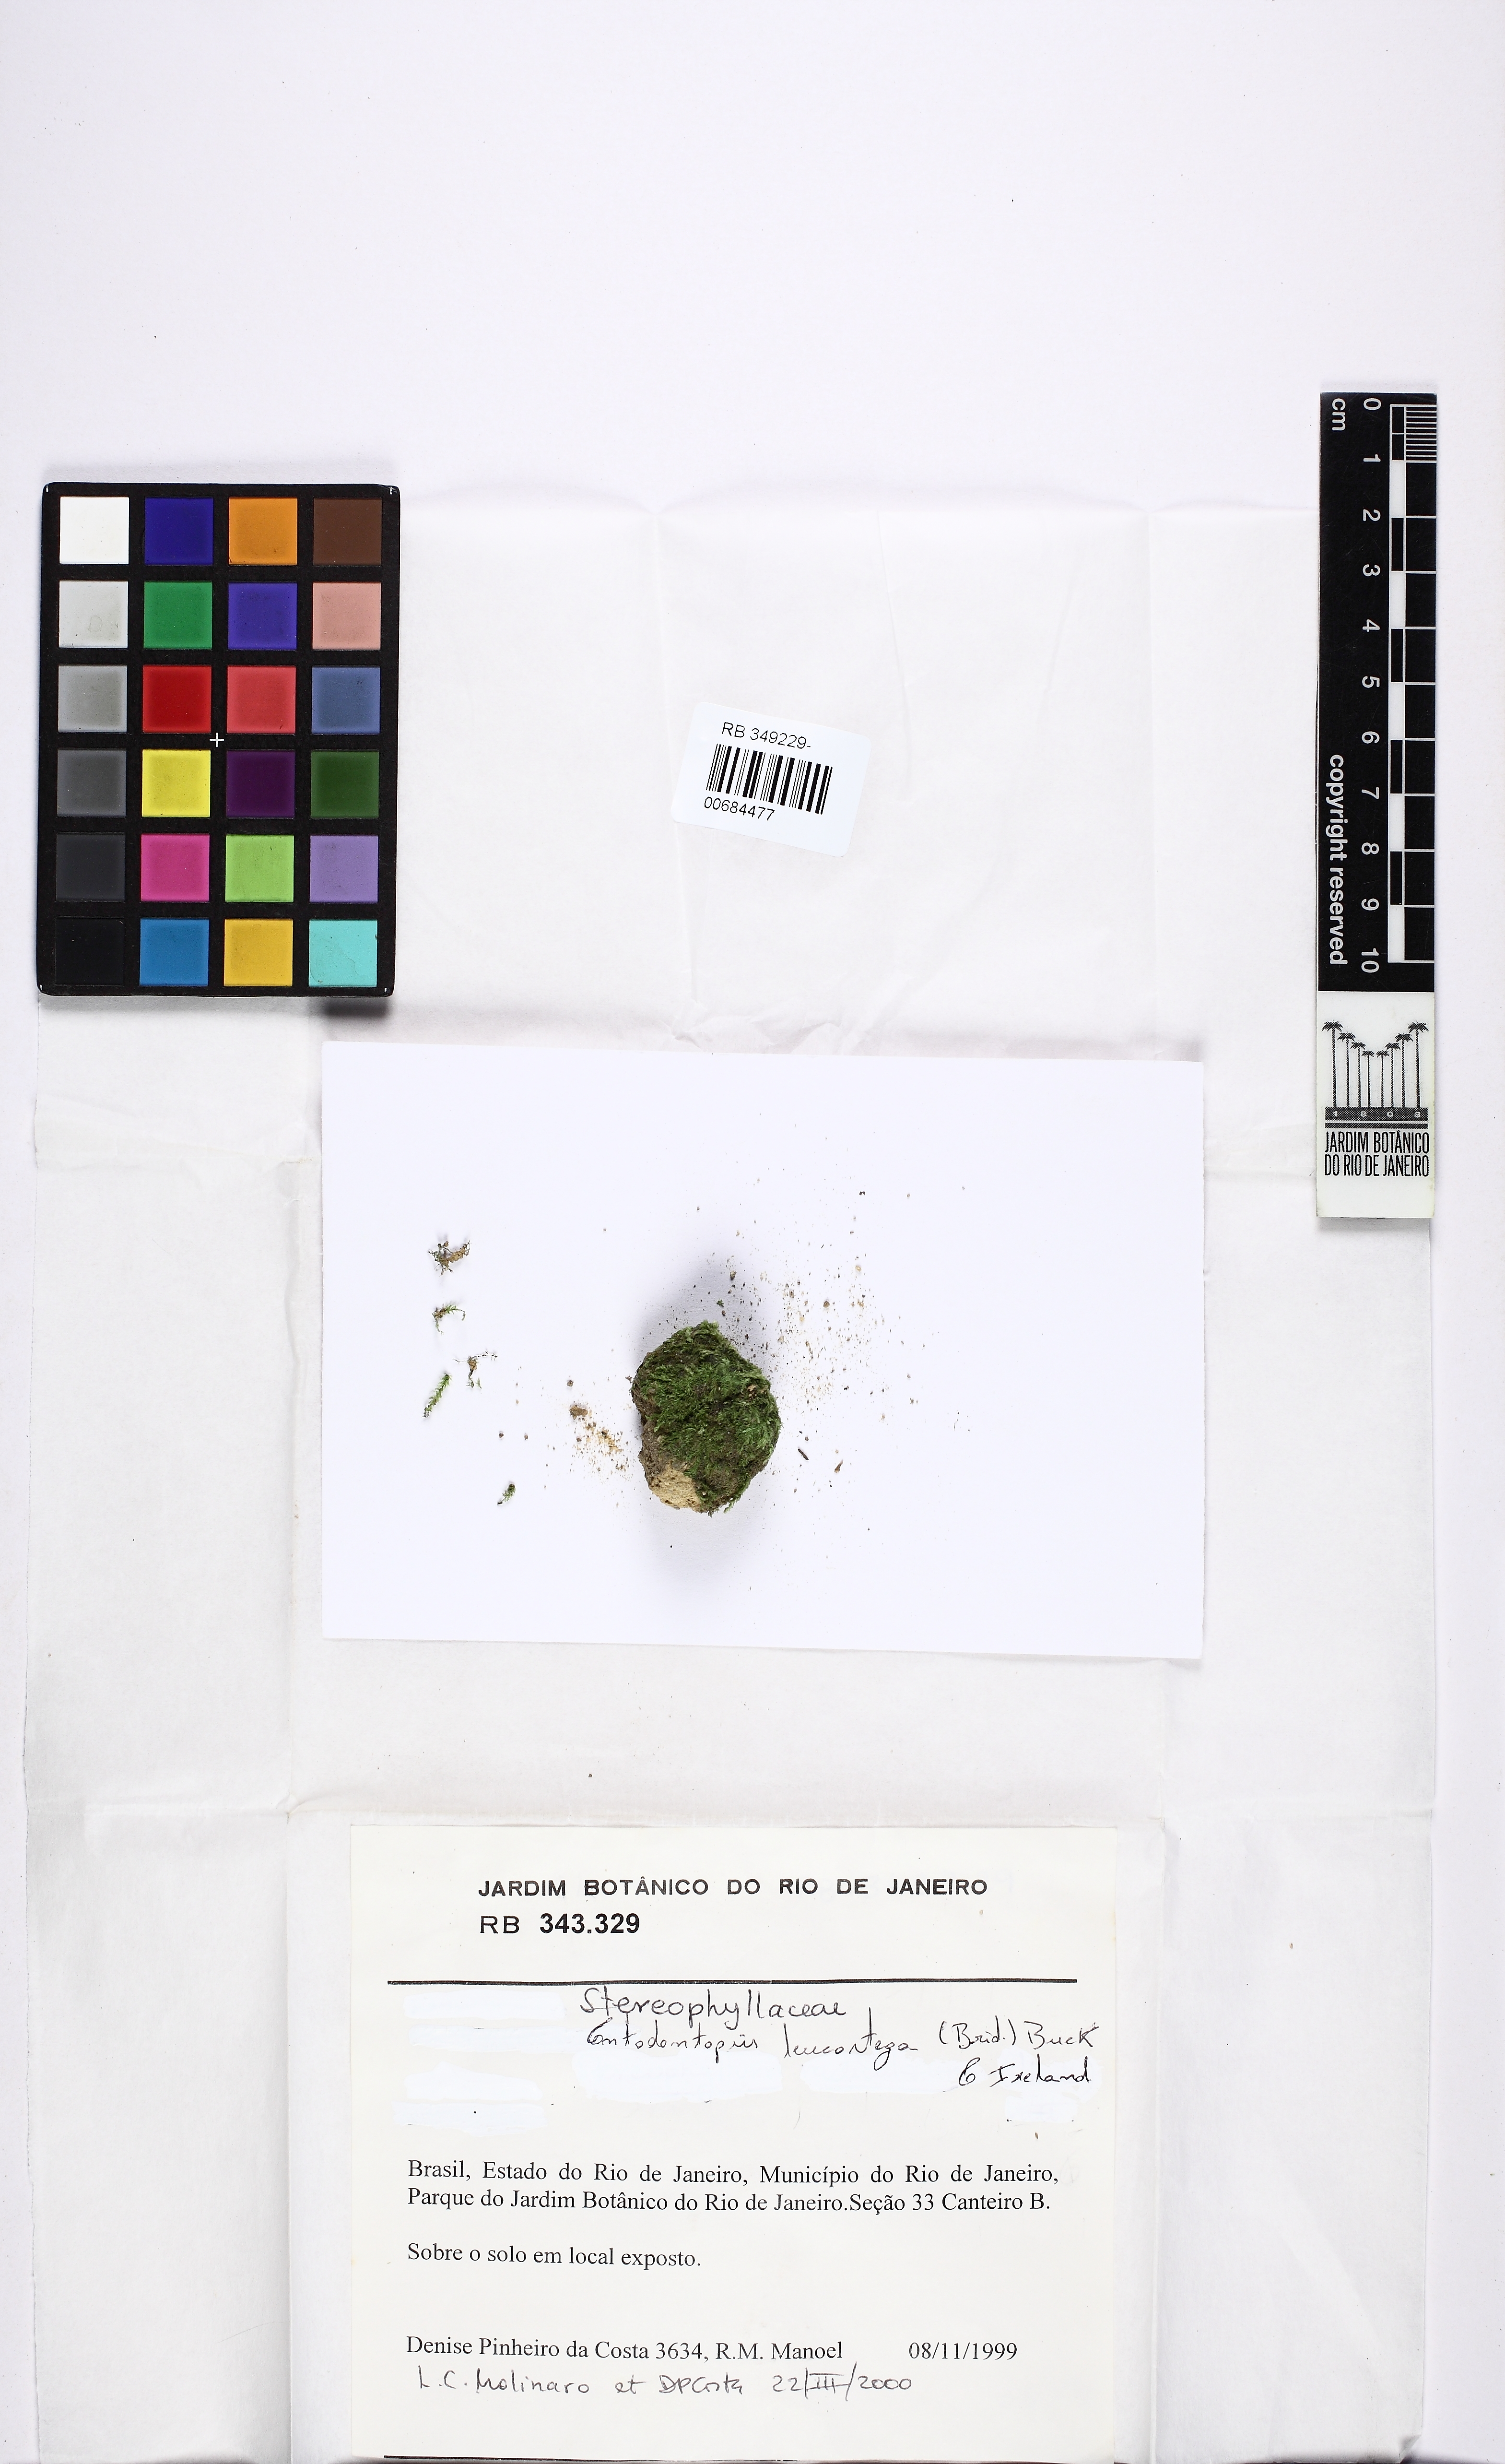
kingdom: Plantae
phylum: Bryophyta
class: Bryopsida
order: Hypnales
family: Stereophyllaceae
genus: Entodontopsis
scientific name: Entodontopsis leucostega
